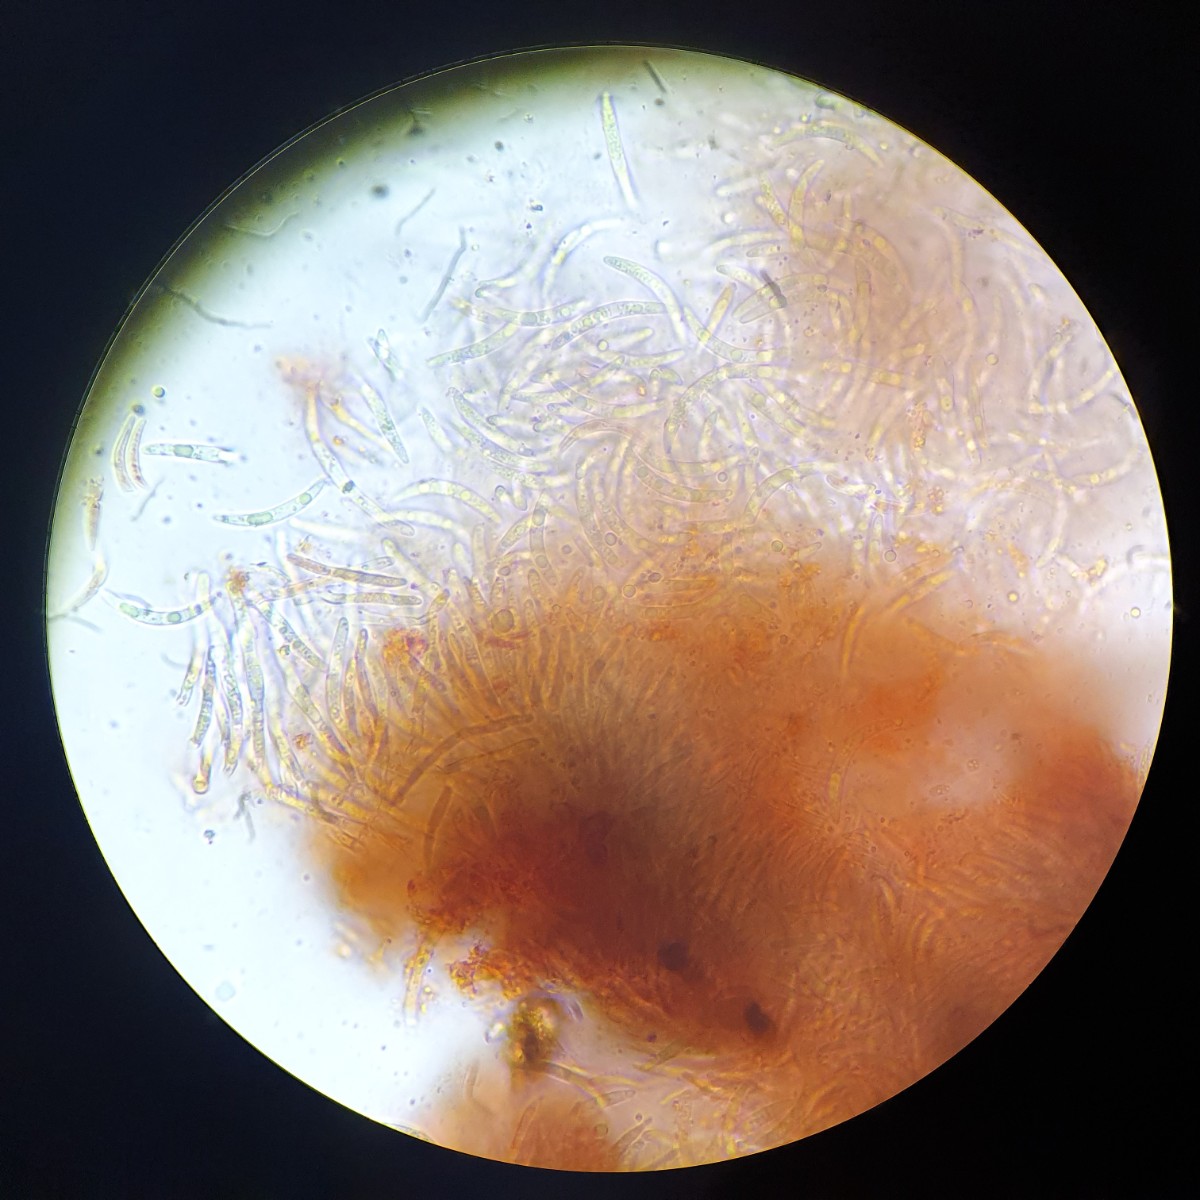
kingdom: Fungi
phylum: Ascomycota
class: Leotiomycetes
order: Helotiales
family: Dermateaceae
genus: Dermea
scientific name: Dermea prunastri
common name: blomme-klyngeskive
